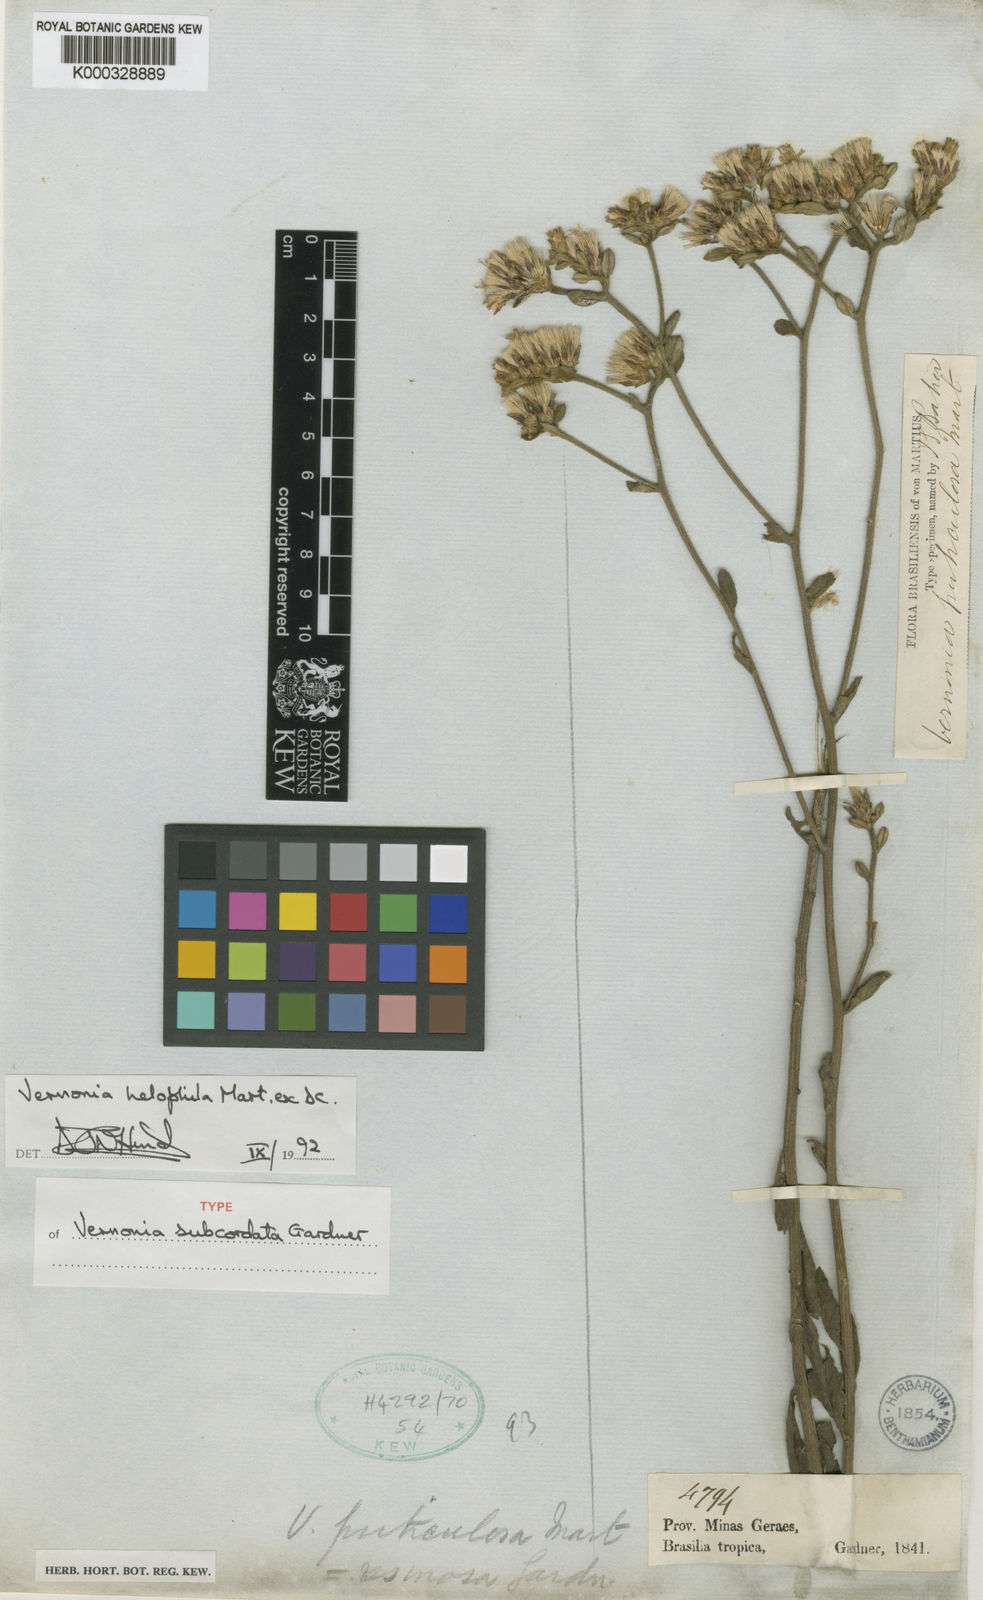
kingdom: Plantae
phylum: Tracheophyta
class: Magnoliopsida
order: Asterales
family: Asteraceae
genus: Lepidaploa
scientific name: Lepidaploa helophila
